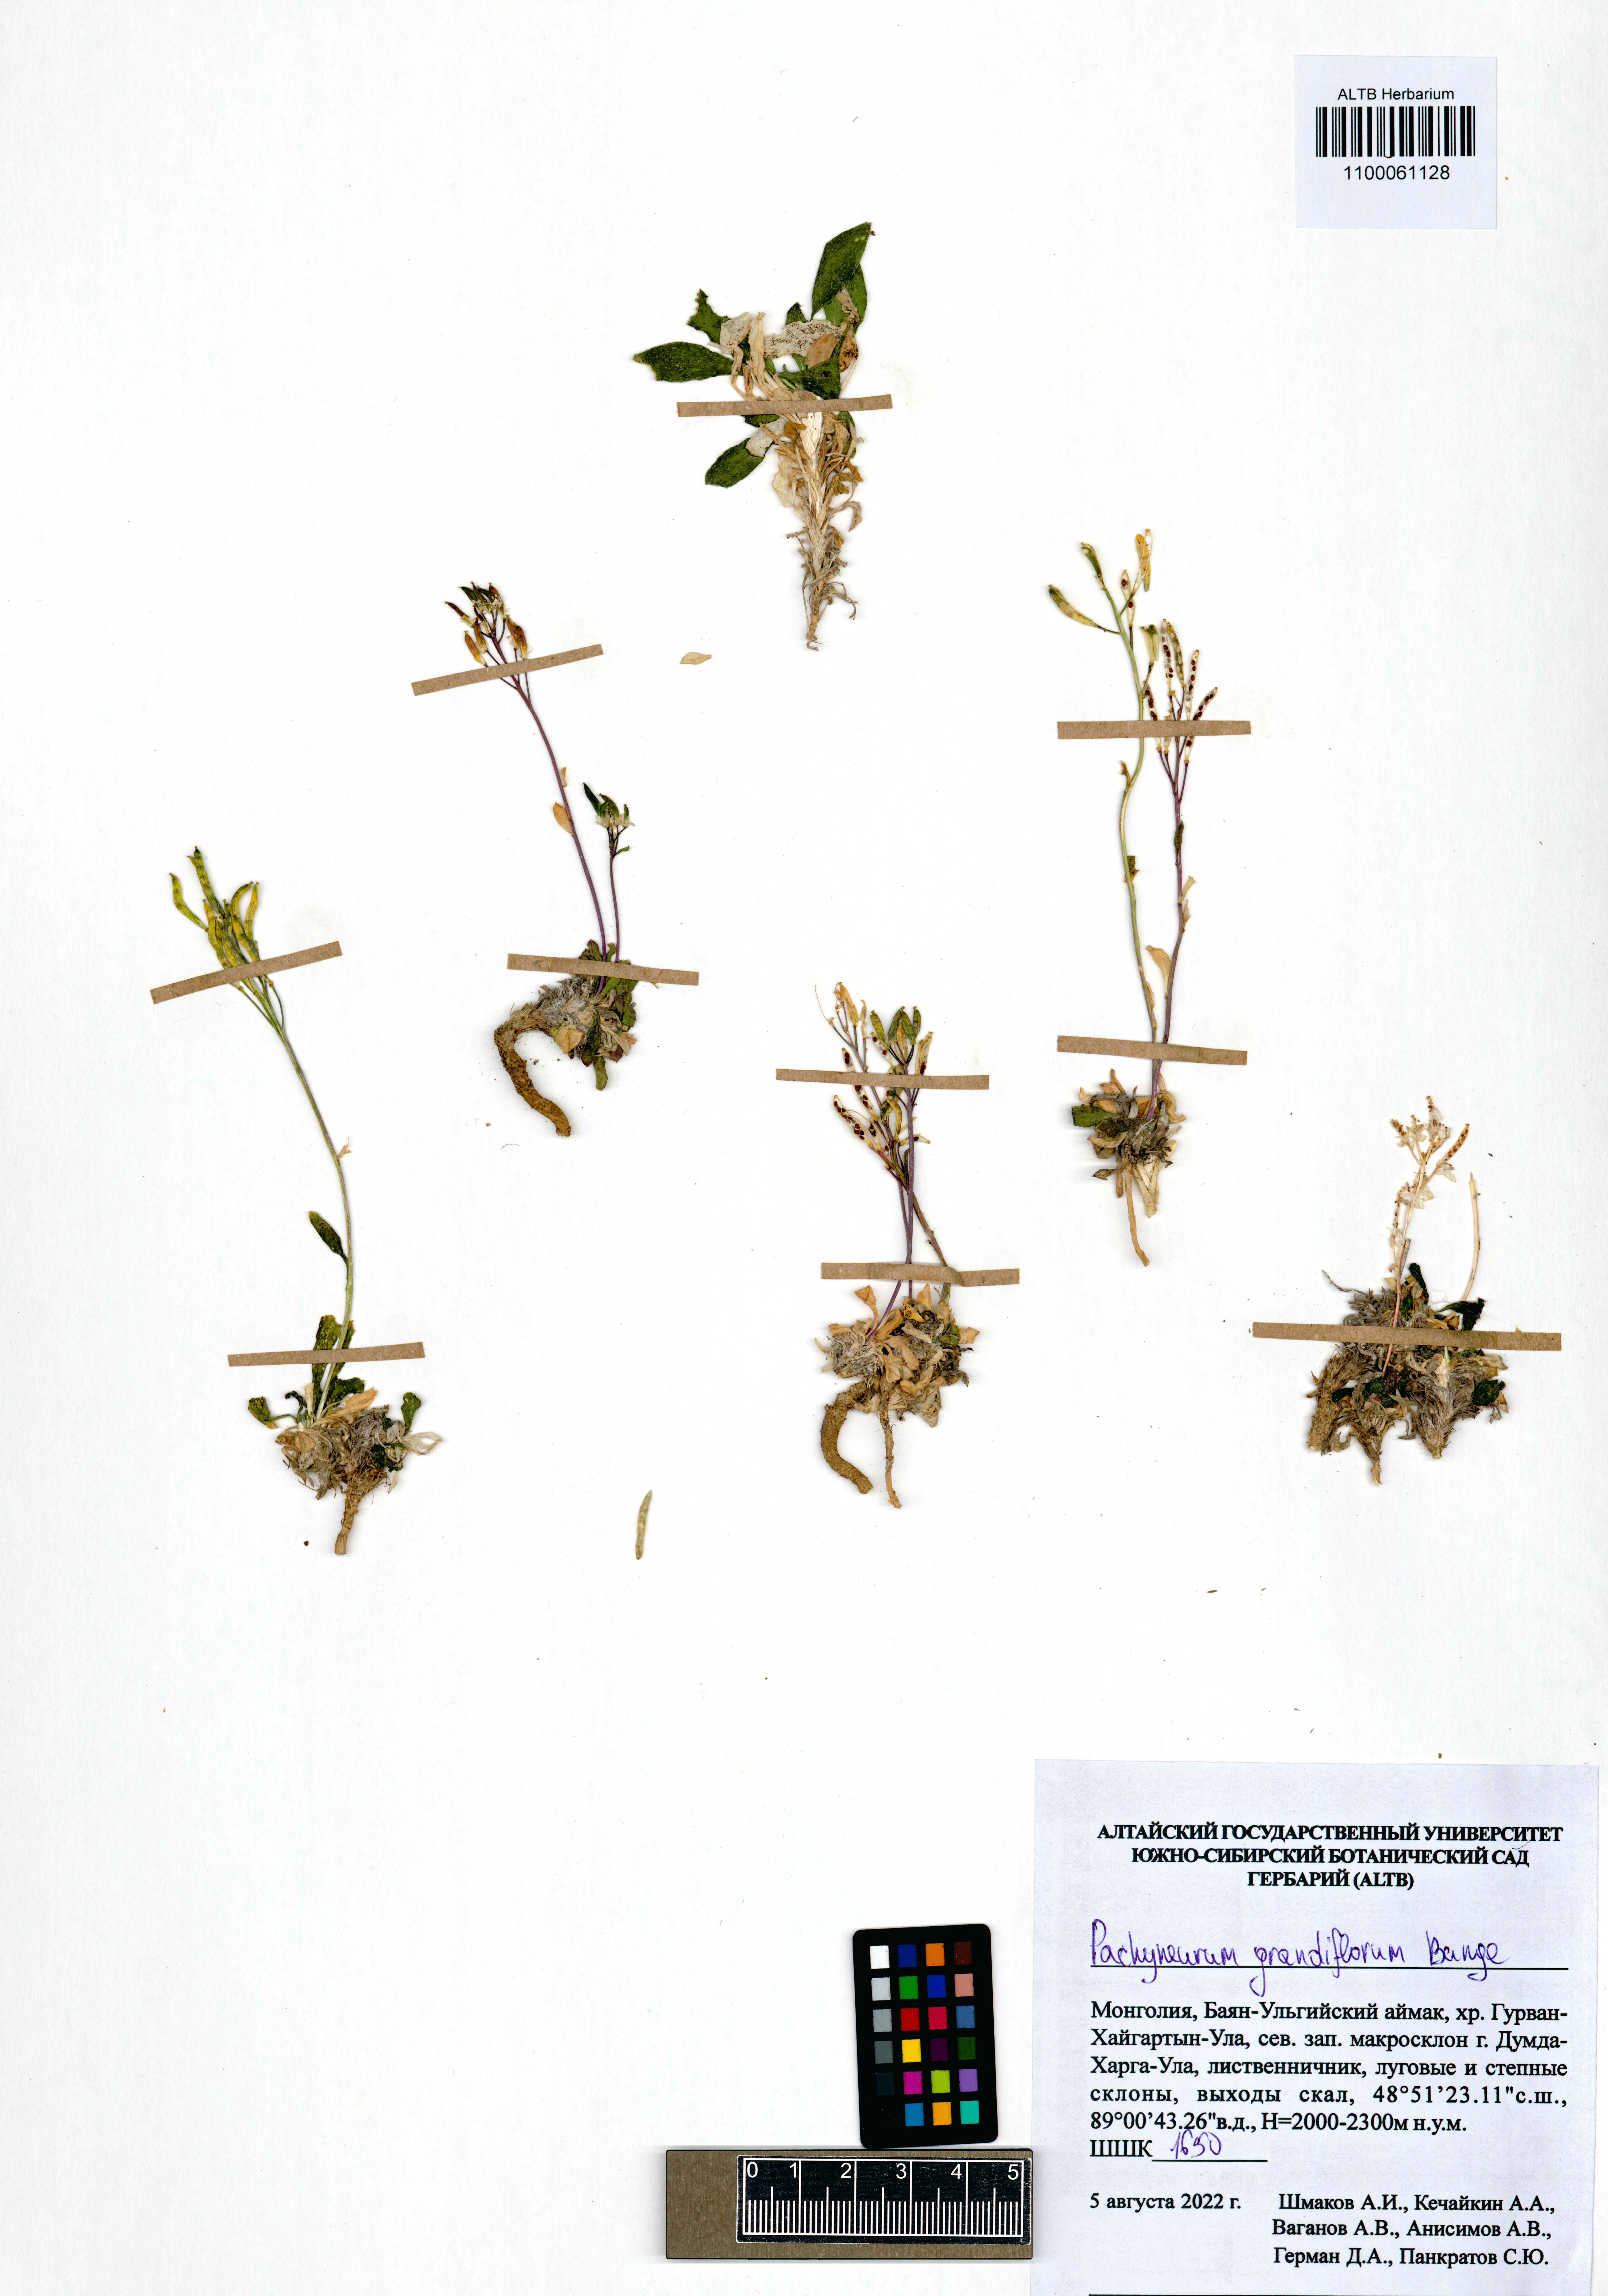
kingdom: Plantae
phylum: Tracheophyta
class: Magnoliopsida
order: Brassicales
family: Brassicaceae
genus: Pachyneurum
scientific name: Pachyneurum grandiflorum
